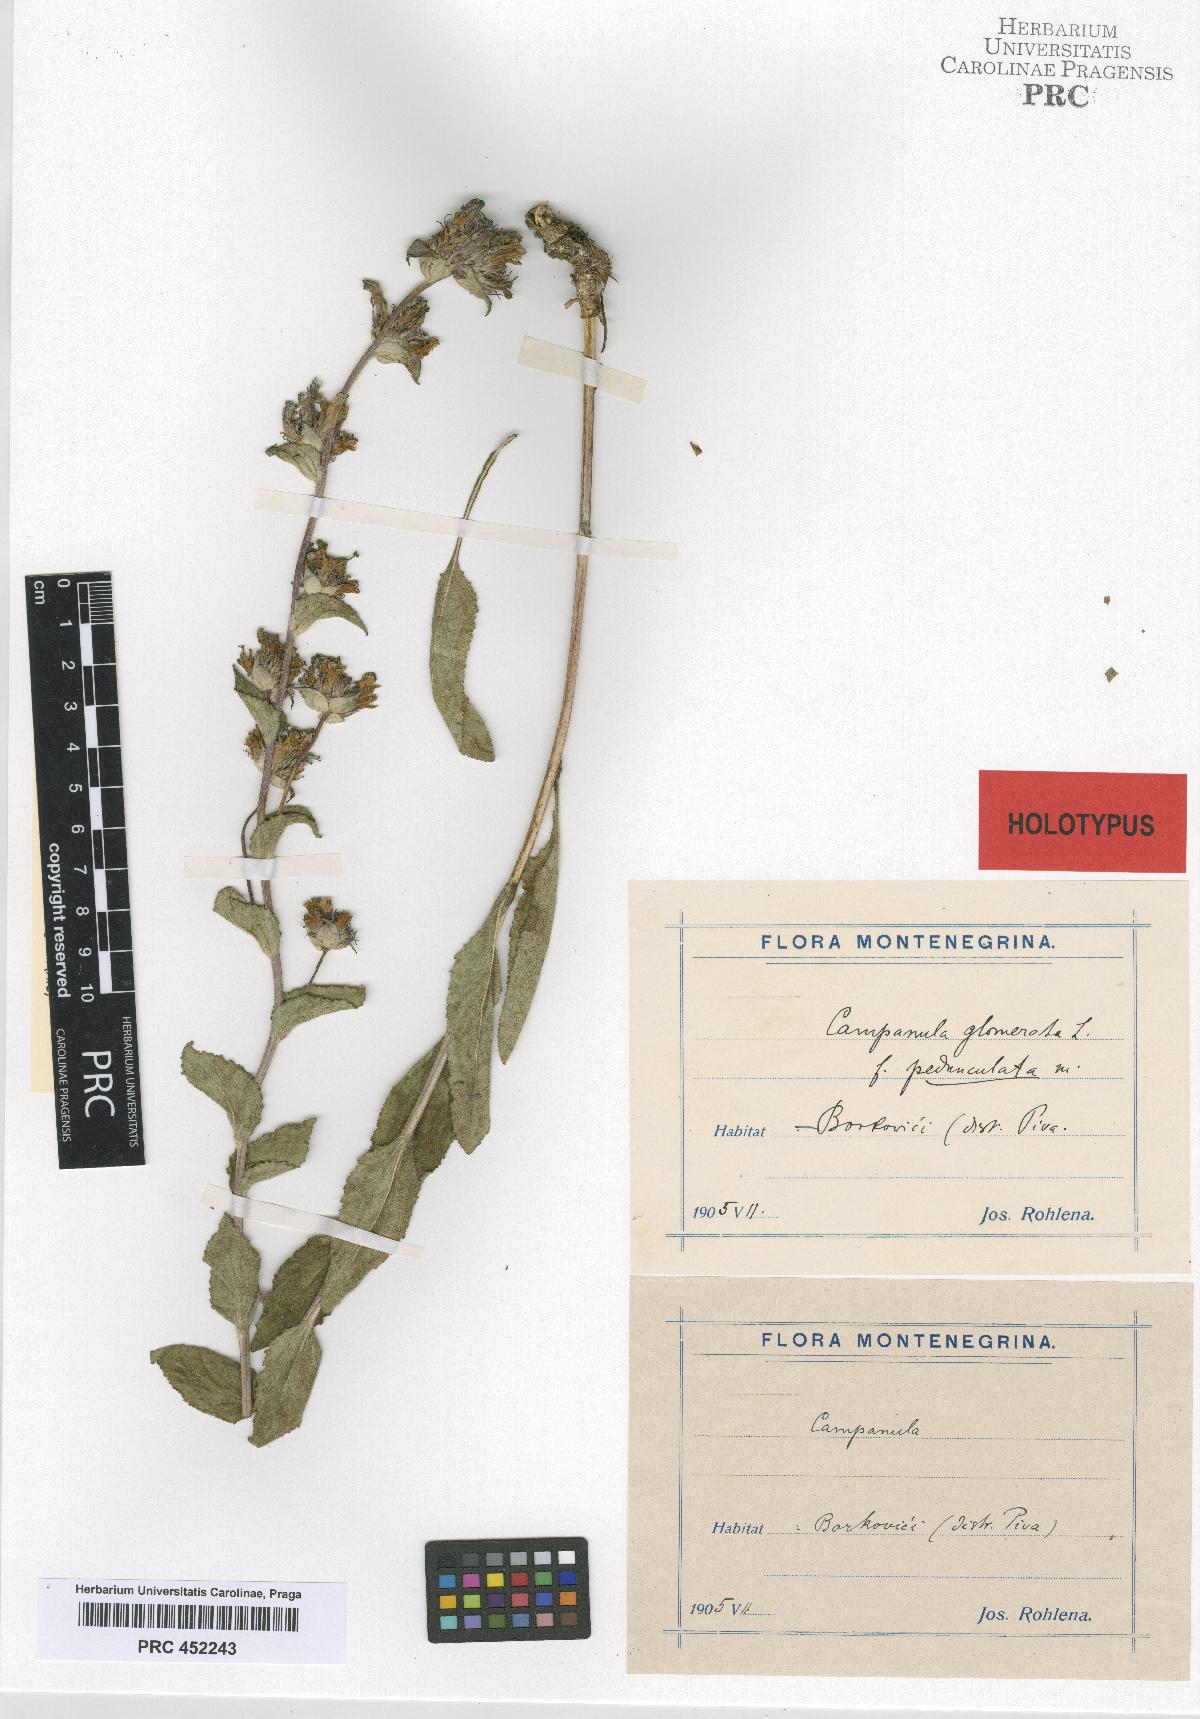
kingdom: Plantae
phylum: Tracheophyta
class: Magnoliopsida
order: Asterales
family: Campanulaceae
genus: Campanula
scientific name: Campanula glomerata
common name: Clustered bellflower
